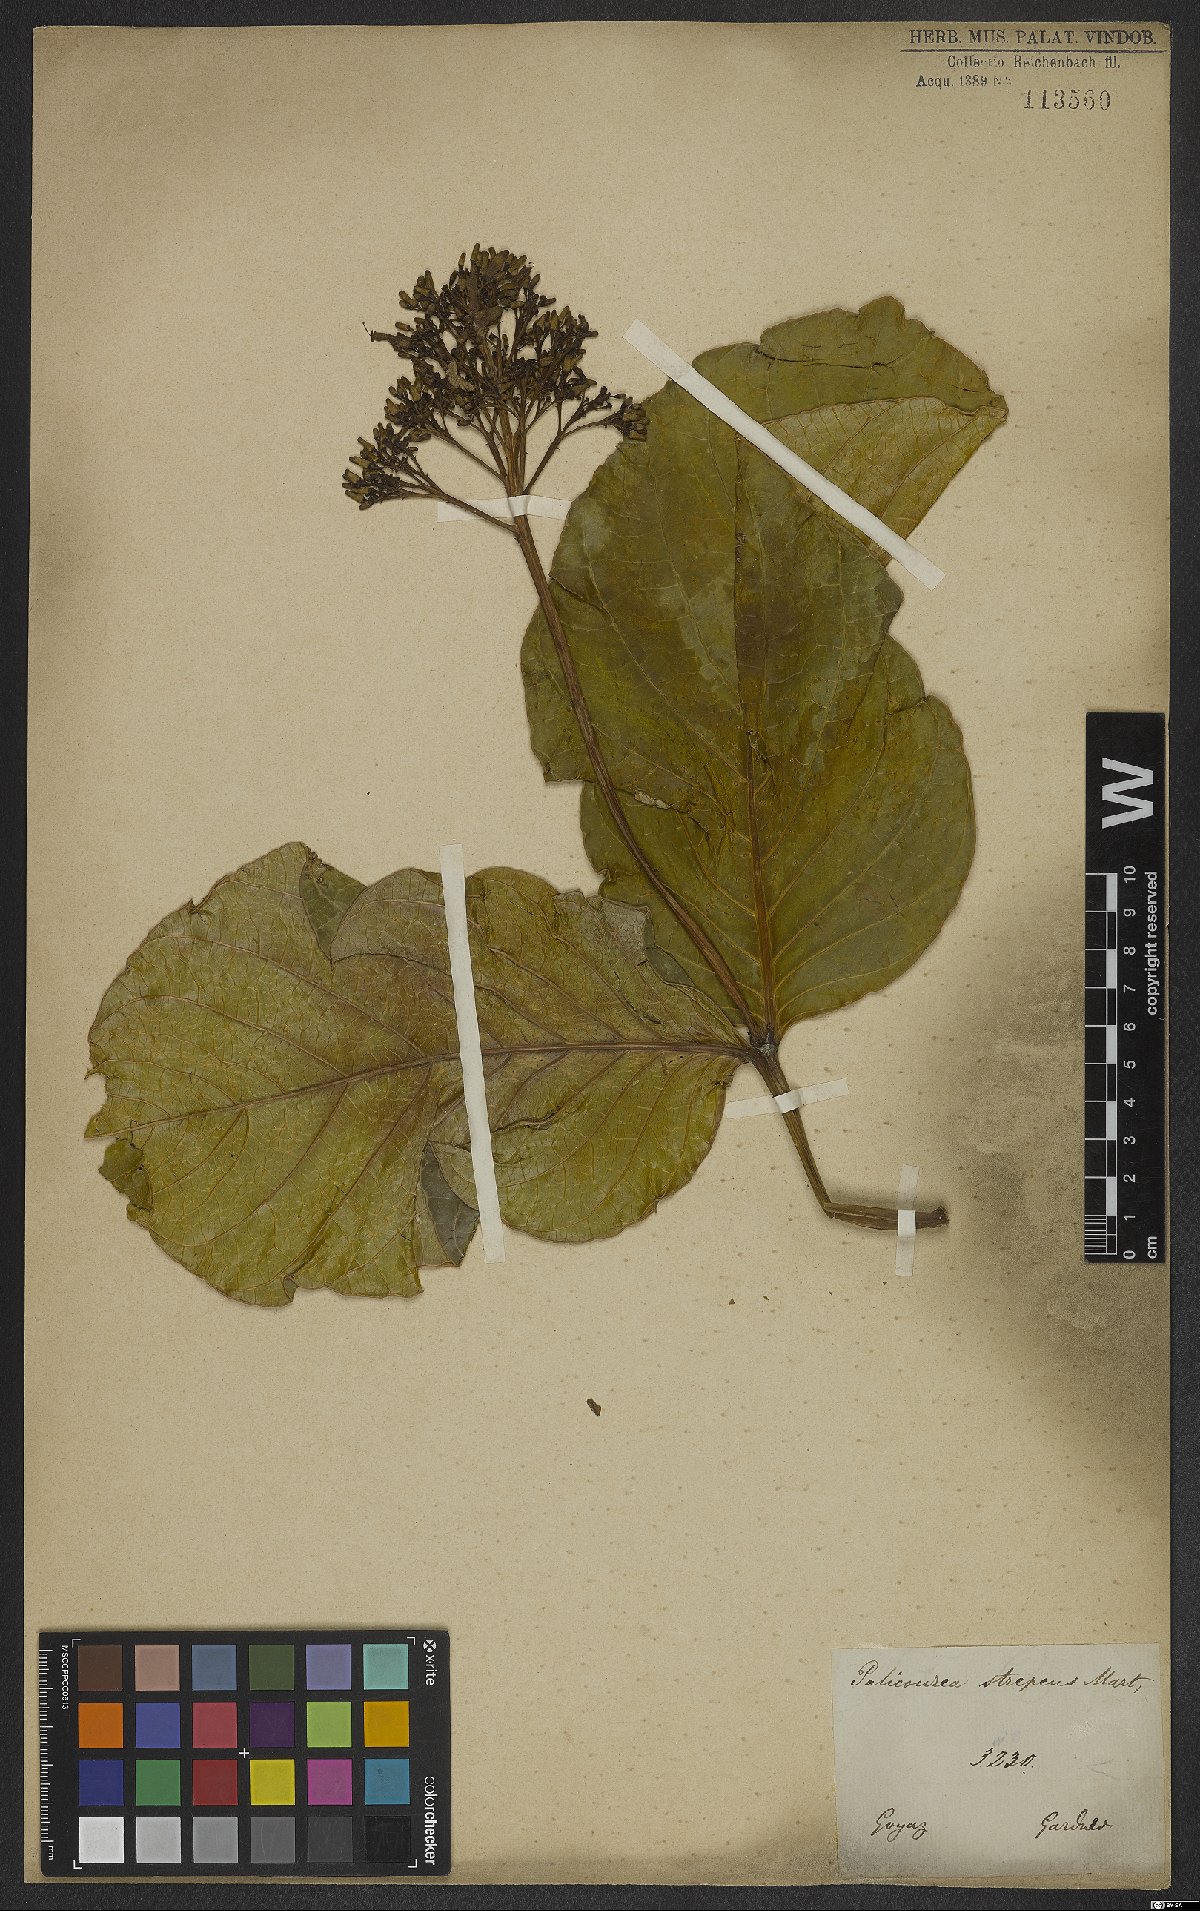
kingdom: Plantae
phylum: Tracheophyta
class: Magnoliopsida
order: Gentianales
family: Rubiaceae
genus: Palicourea
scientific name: Palicourea rigida
